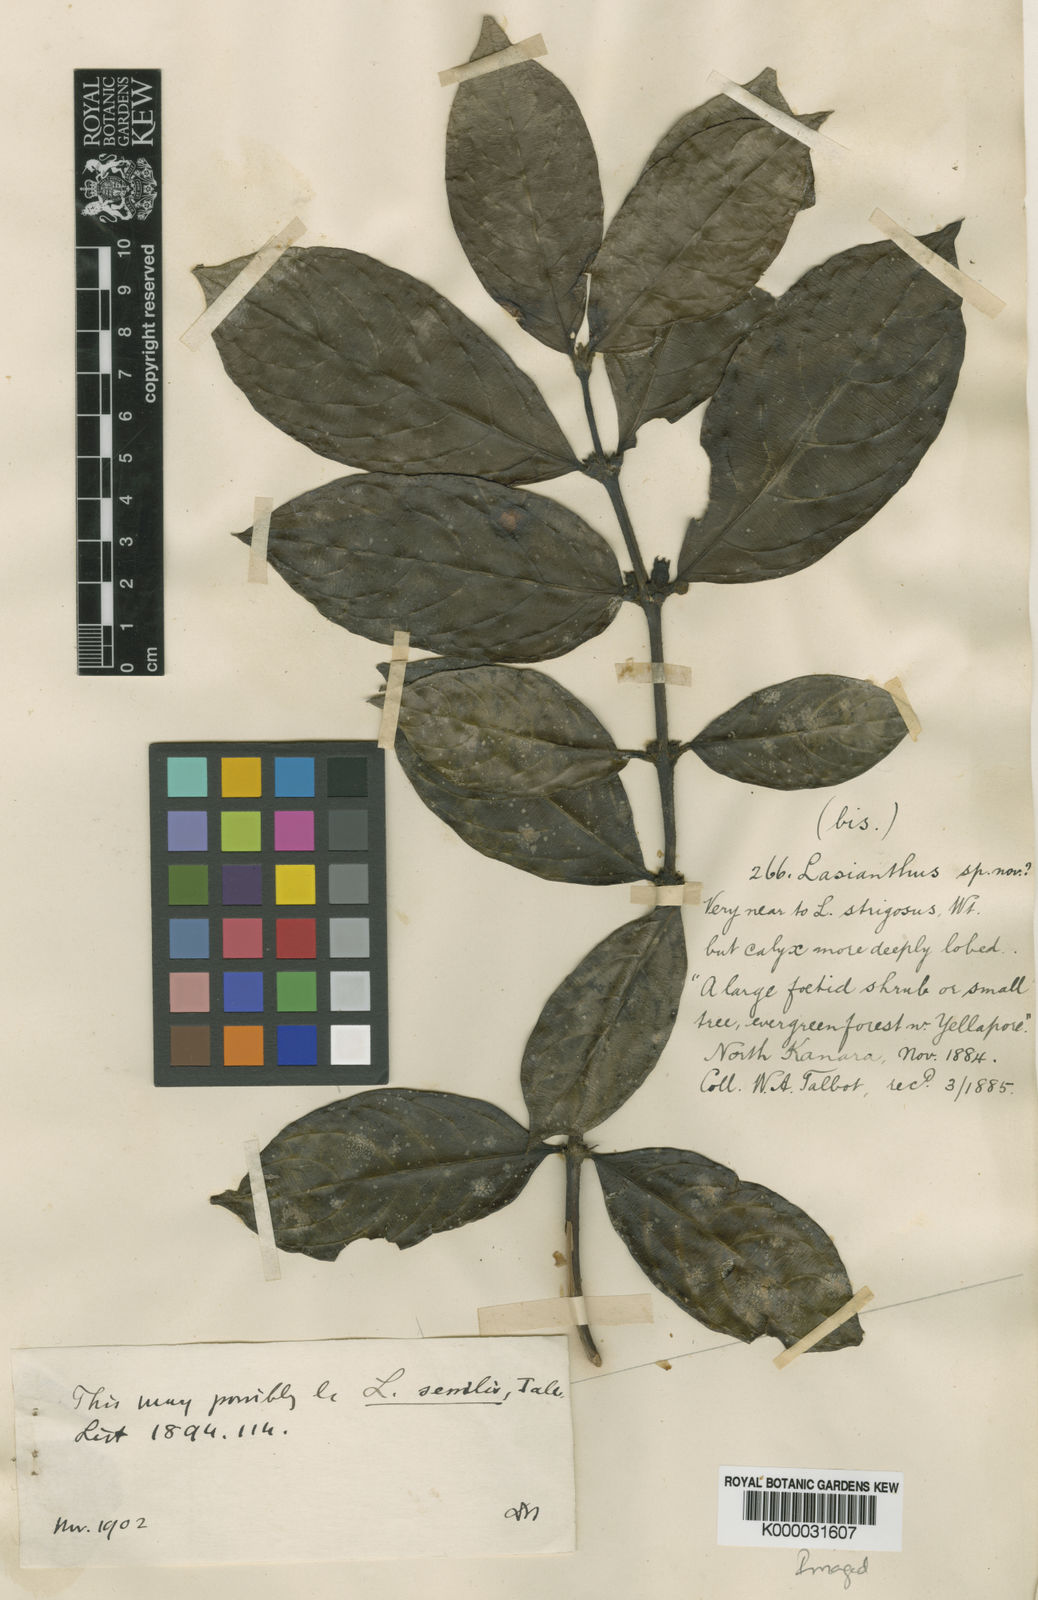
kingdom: Plantae
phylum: Tracheophyta
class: Magnoliopsida
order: Gentianales
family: Rubiaceae
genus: Lasianthus
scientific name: Lasianthus sessilis
